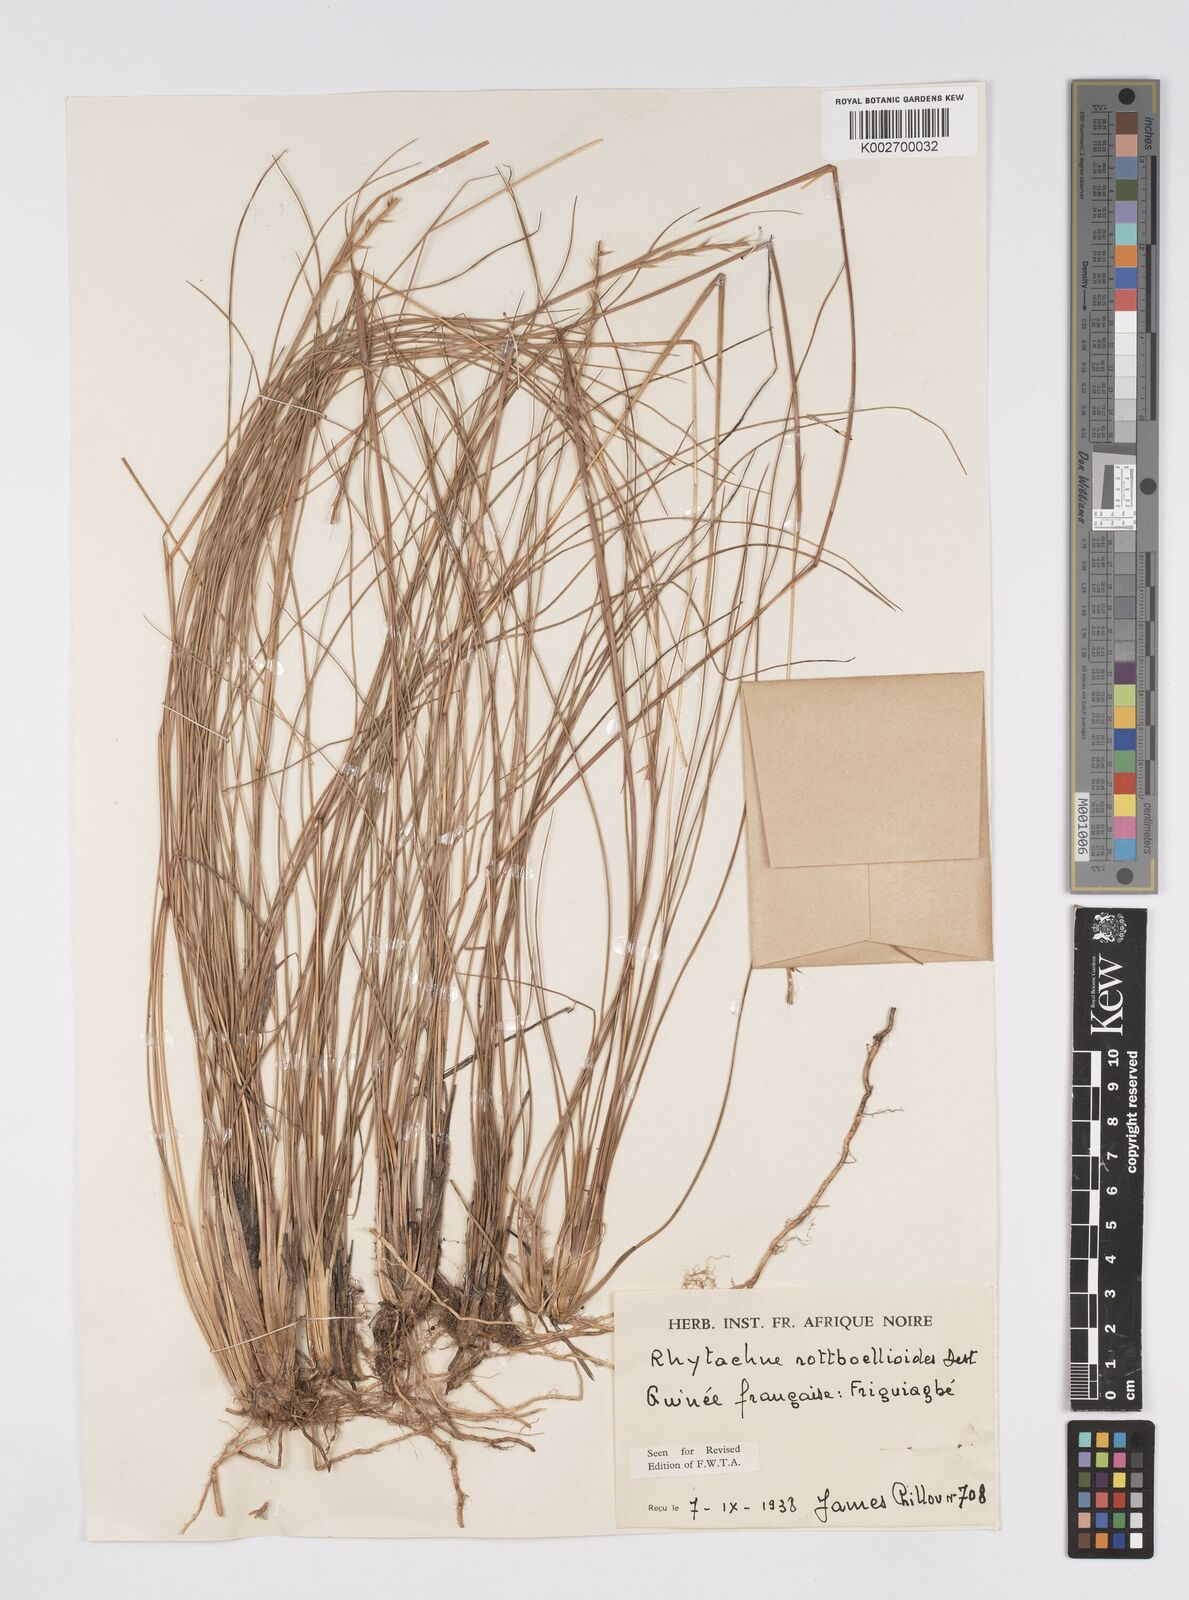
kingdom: Plantae
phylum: Tracheophyta
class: Liliopsida
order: Poales
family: Poaceae
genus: Rhytachne
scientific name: Rhytachne rottboellioides
